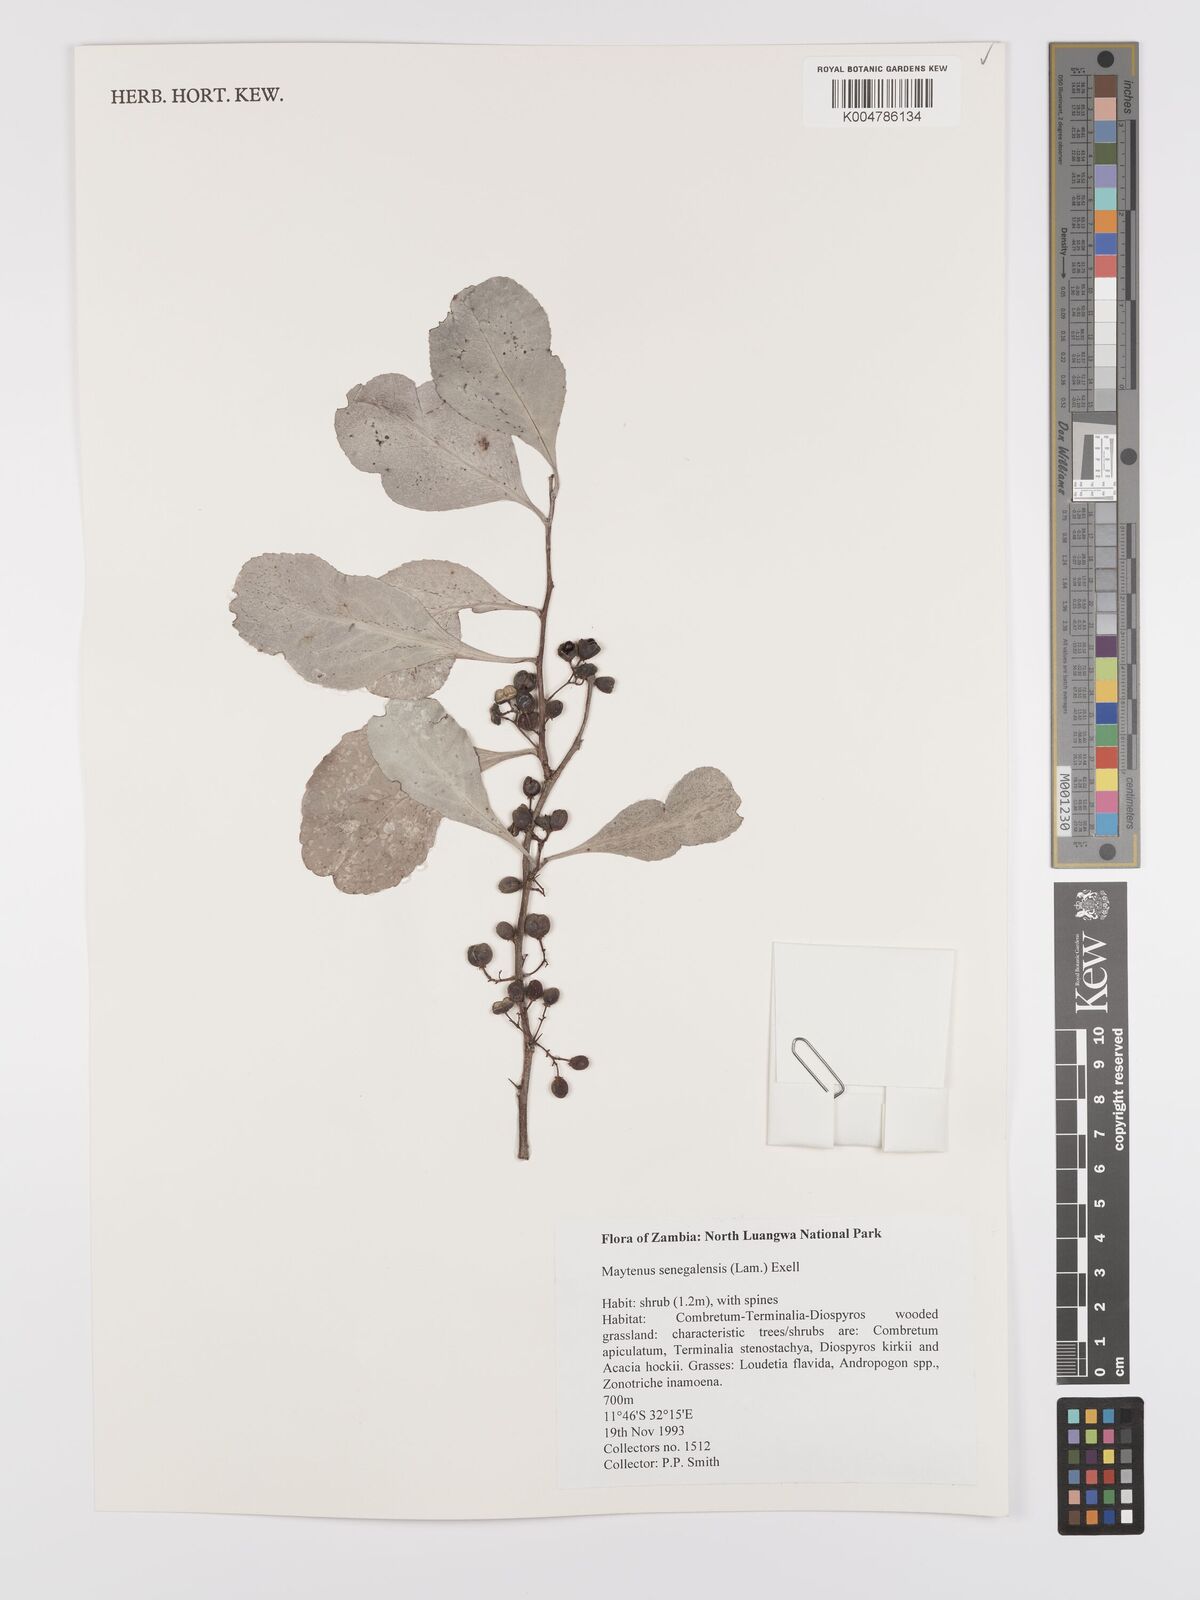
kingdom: Plantae
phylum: Tracheophyta
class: Magnoliopsida
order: Celastrales
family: Celastraceae
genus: Gymnosporia
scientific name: Gymnosporia senegalensis
